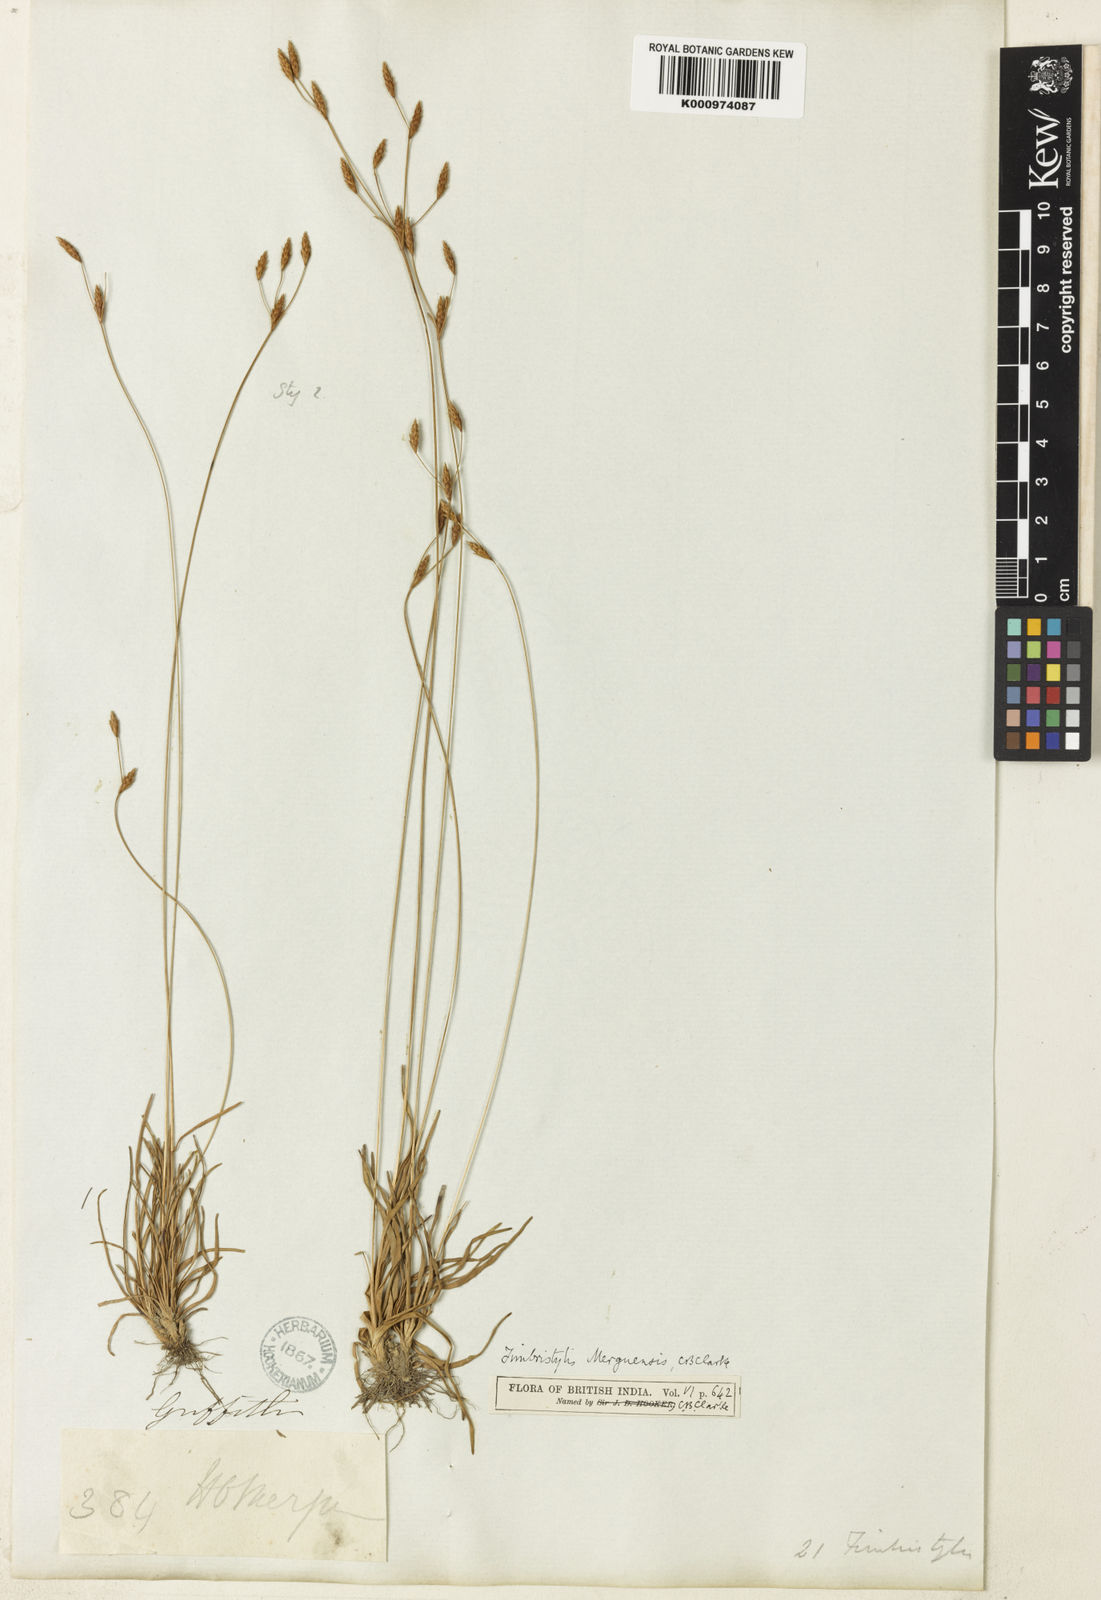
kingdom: Plantae
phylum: Tracheophyta
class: Liliopsida
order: Poales
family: Cyperaceae
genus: Fimbristylis
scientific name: Fimbristylis merguensis
